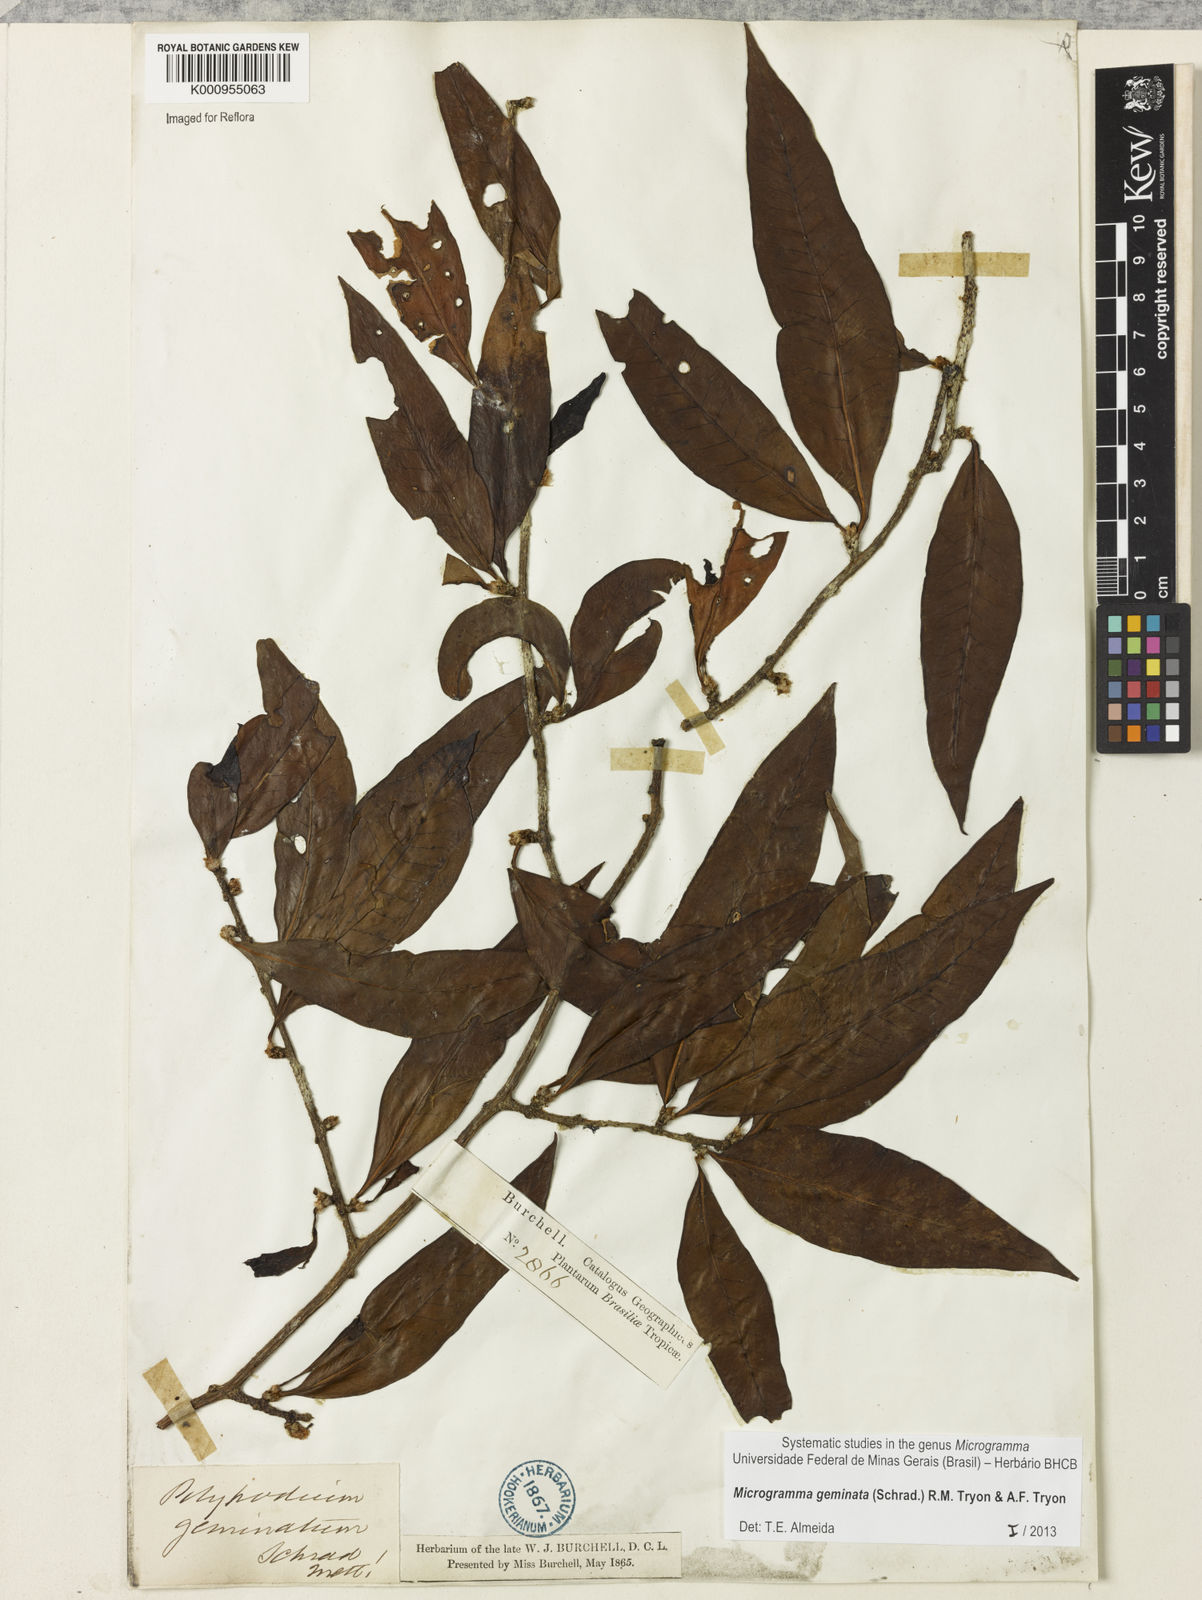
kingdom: Plantae
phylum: Tracheophyta
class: Polypodiopsida
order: Polypodiales
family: Polypodiaceae
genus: Microgramma
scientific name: Microgramma geminata
